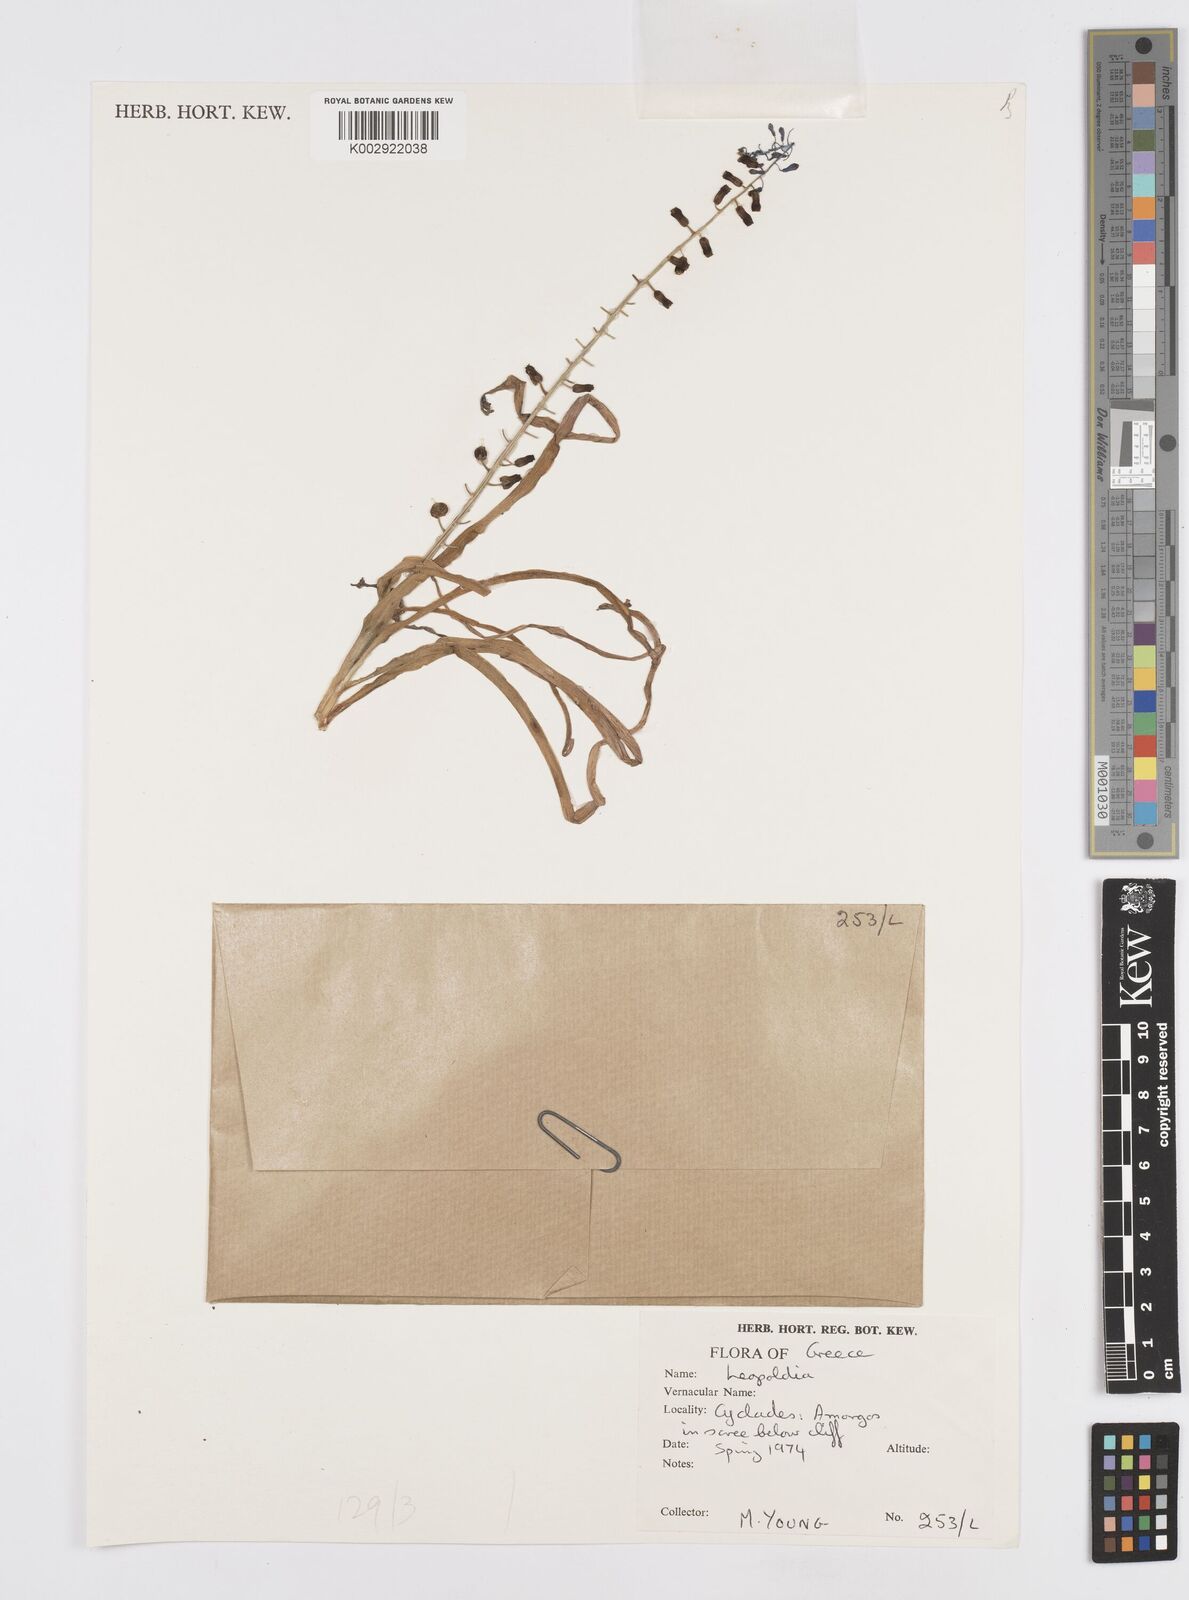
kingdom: Animalia
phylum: Mollusca
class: Cephalopoda
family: Neocomitidae
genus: Leopoldia
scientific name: Leopoldia
